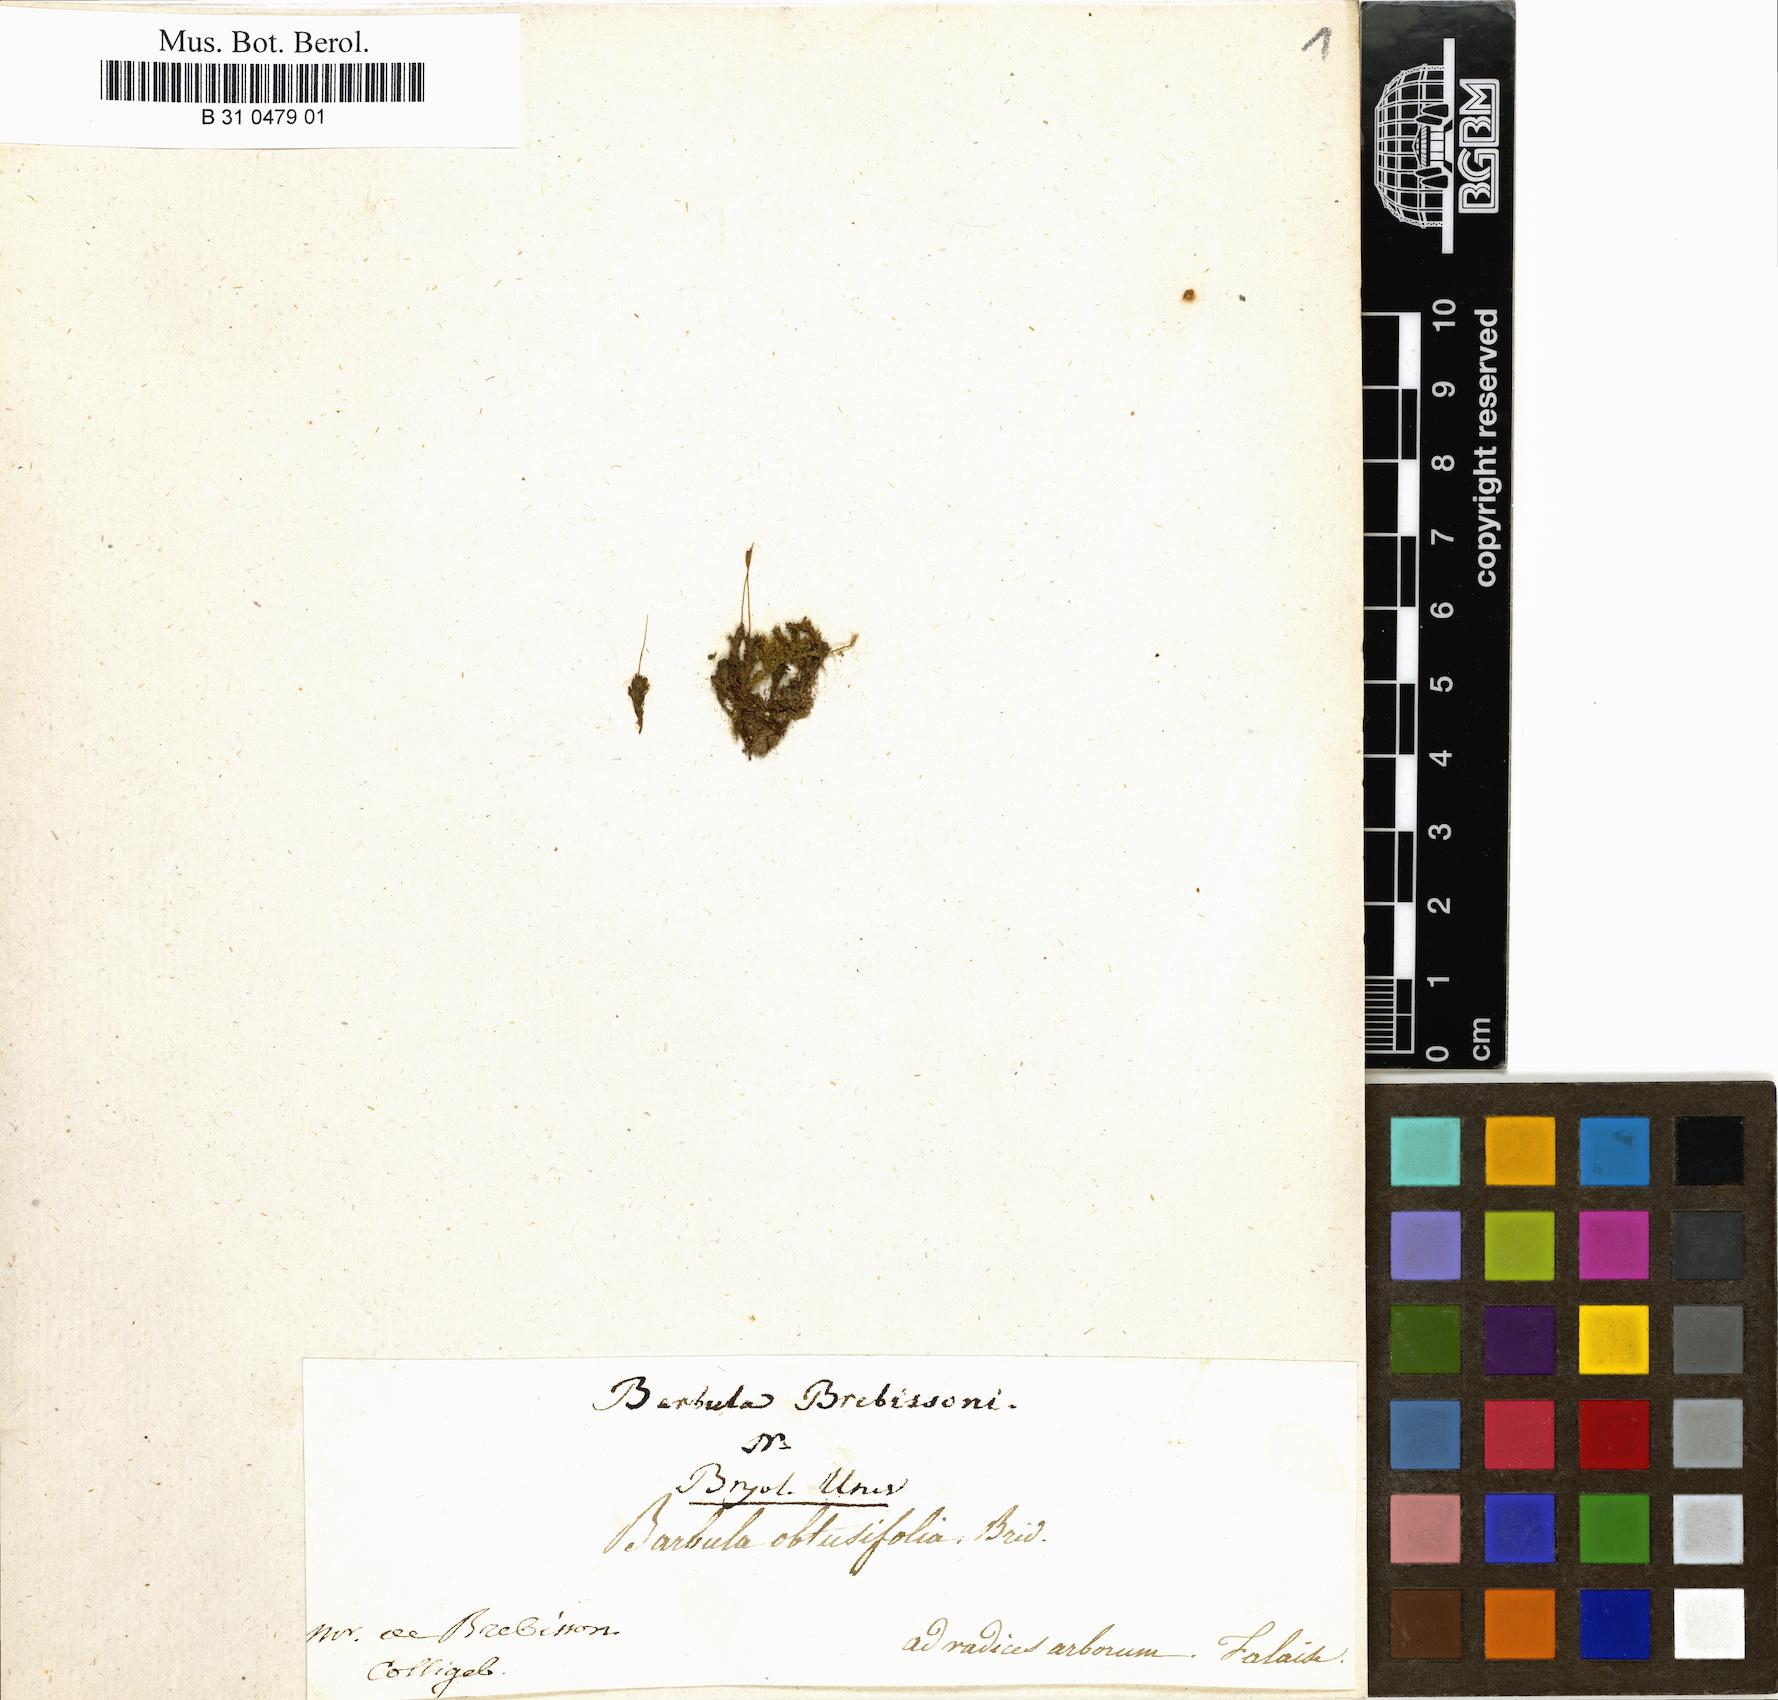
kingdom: Plantae
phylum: Bryophyta
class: Bryopsida
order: Pottiales
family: Pottiaceae
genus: Dialytrichia
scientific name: Dialytrichia mucronata
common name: Pointed lattice-moss
